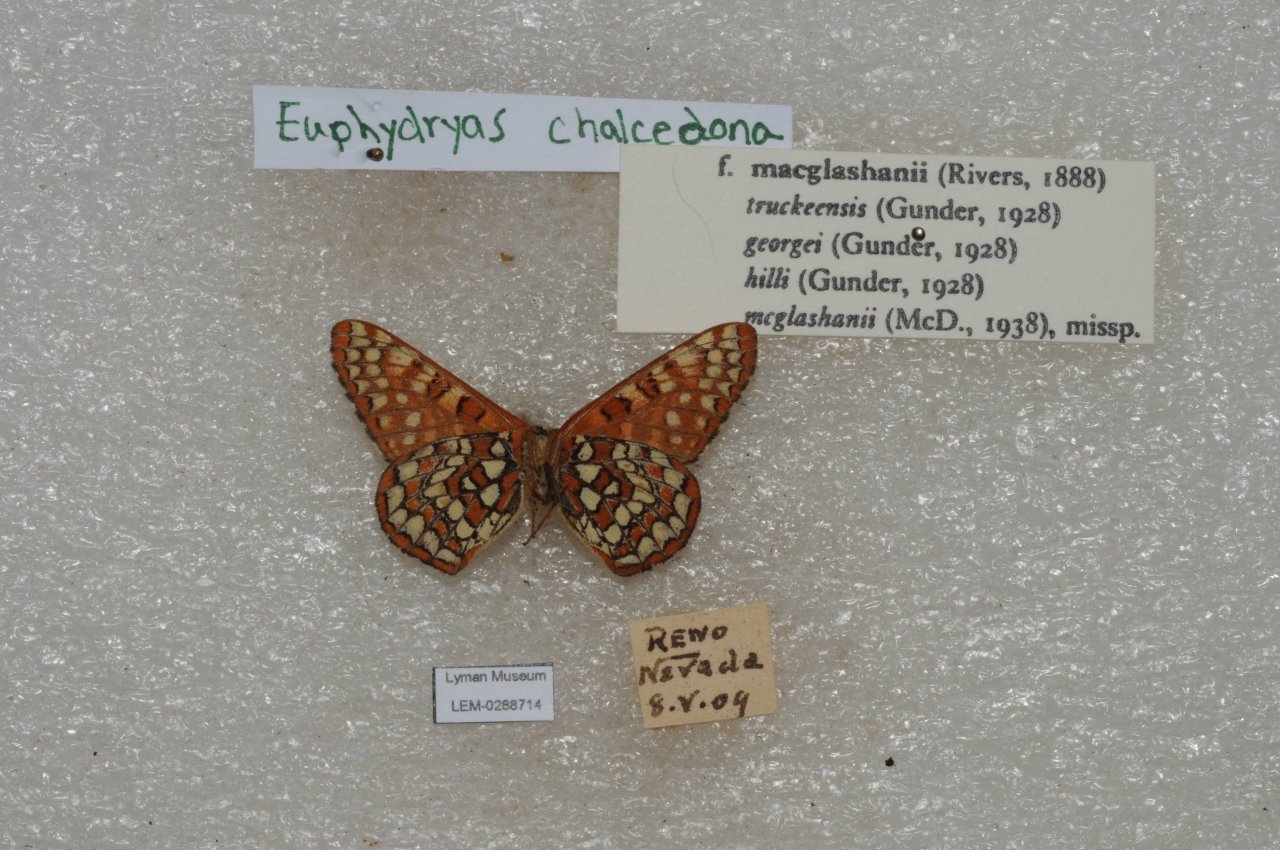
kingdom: Animalia
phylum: Arthropoda
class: Insecta
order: Lepidoptera
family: Nymphalidae
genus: Occidryas
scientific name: Occidryas chalcedona
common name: Chalcedon Checkerspot
